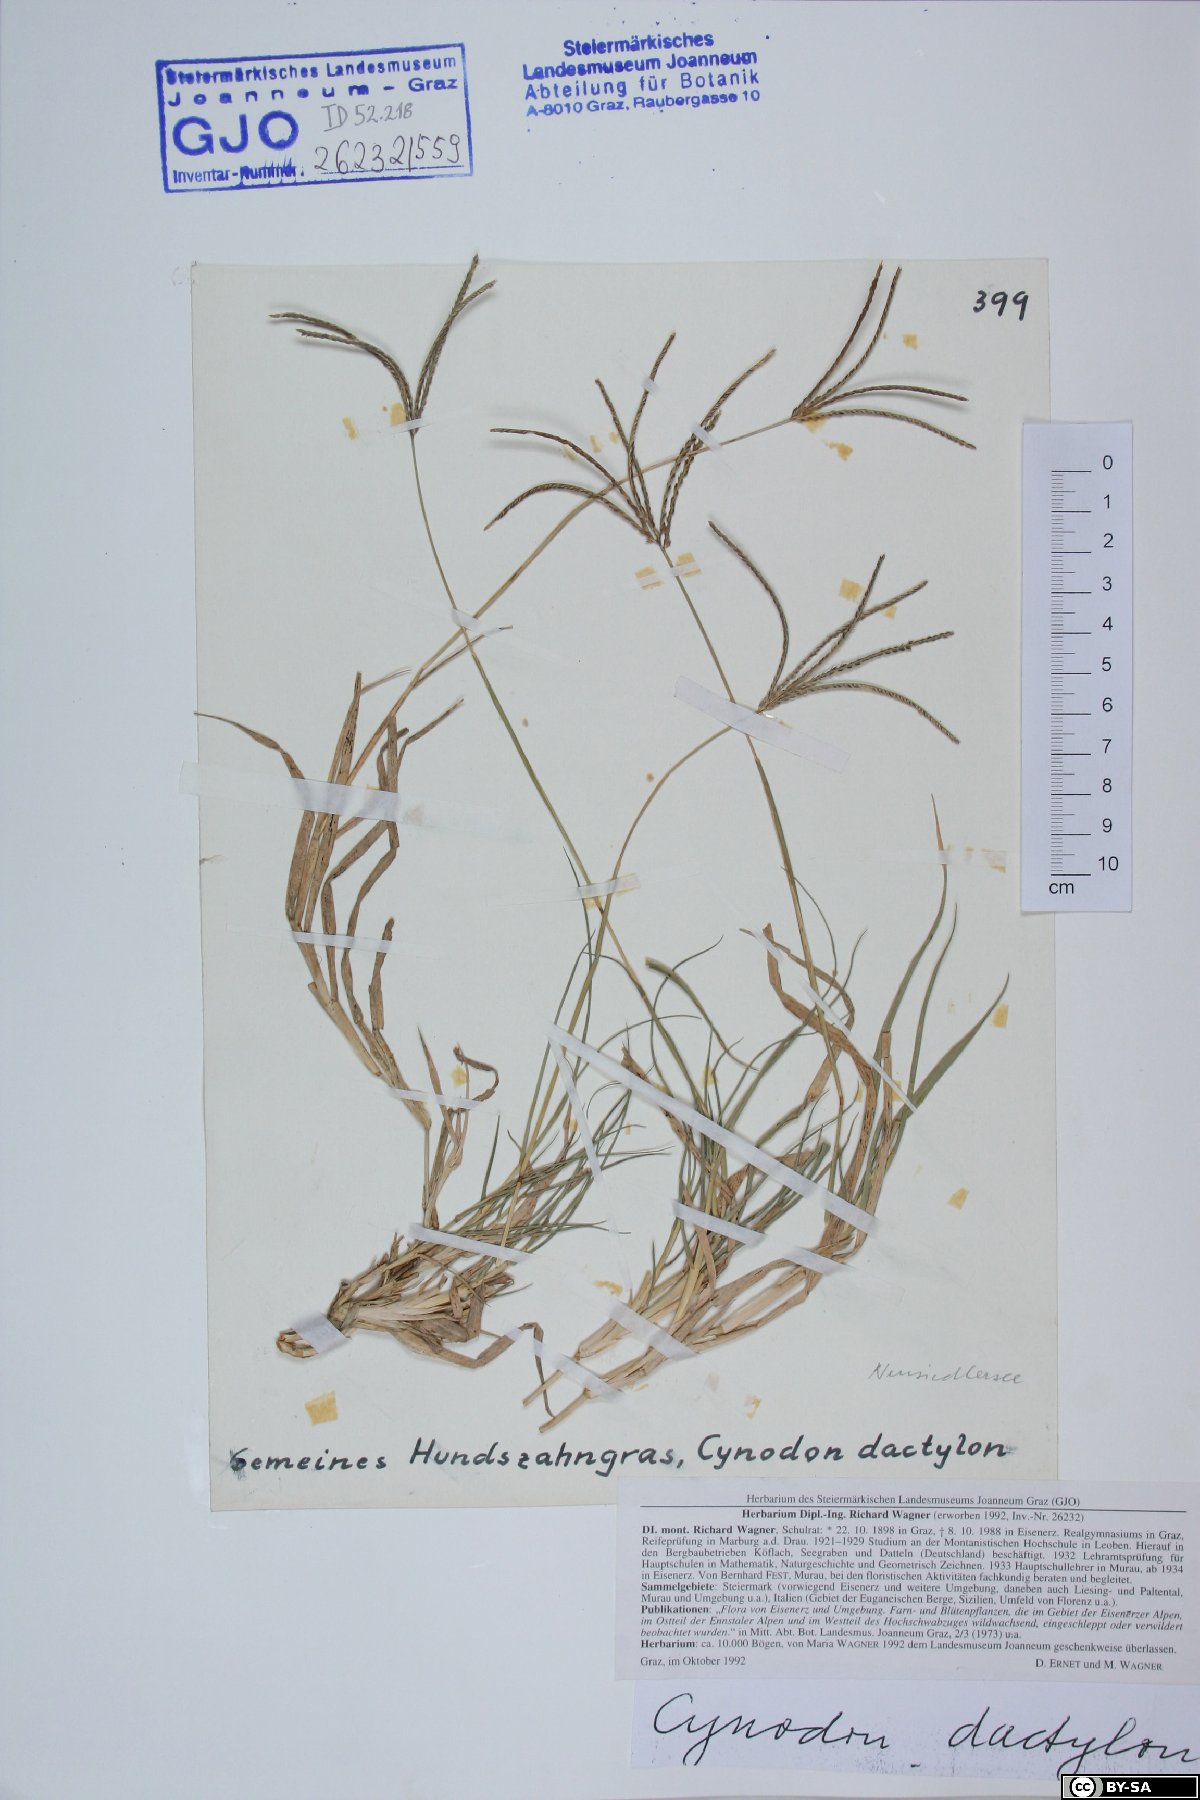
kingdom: Plantae
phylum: Tracheophyta
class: Liliopsida
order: Poales
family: Poaceae
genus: Cynodon
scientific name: Cynodon dactylon
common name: Bermuda grass
